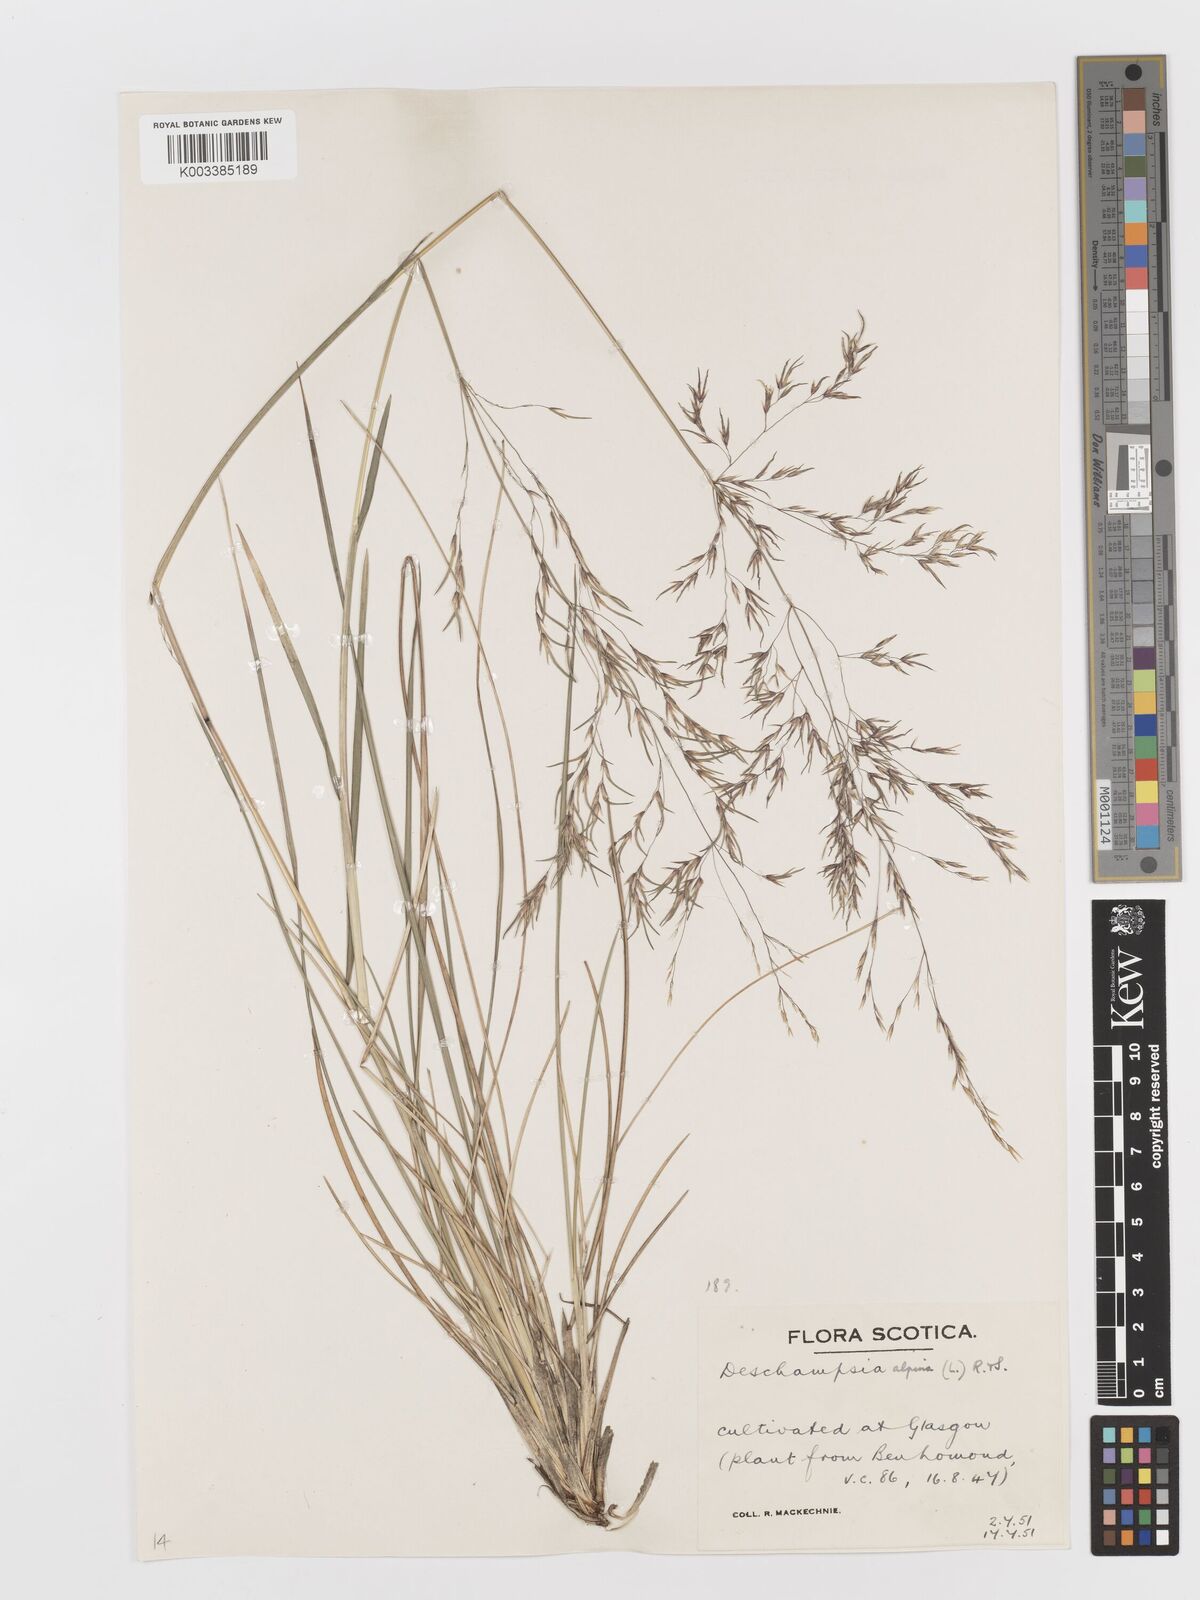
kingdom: Plantae
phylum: Tracheophyta
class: Liliopsida
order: Poales
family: Poaceae
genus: Deschampsia
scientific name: Deschampsia cespitosa
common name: Tufted hair-grass
